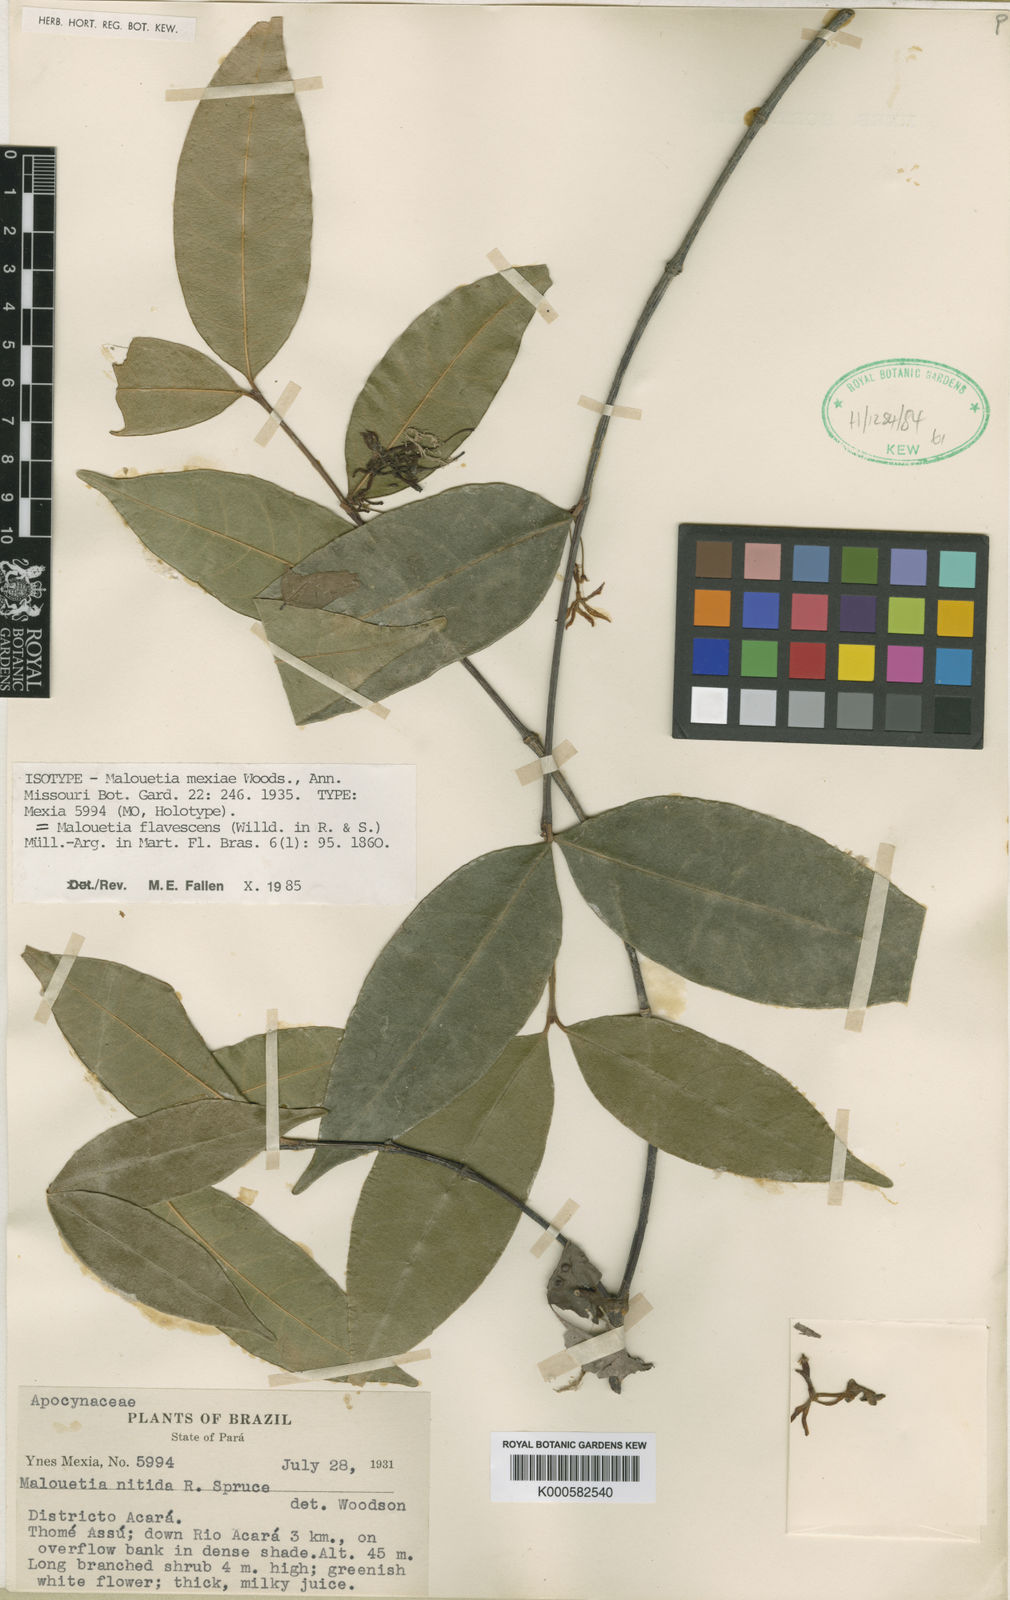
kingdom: Plantae
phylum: Tracheophyta
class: Magnoliopsida
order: Gentianales
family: Apocynaceae
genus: Malouetia
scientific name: Malouetia
